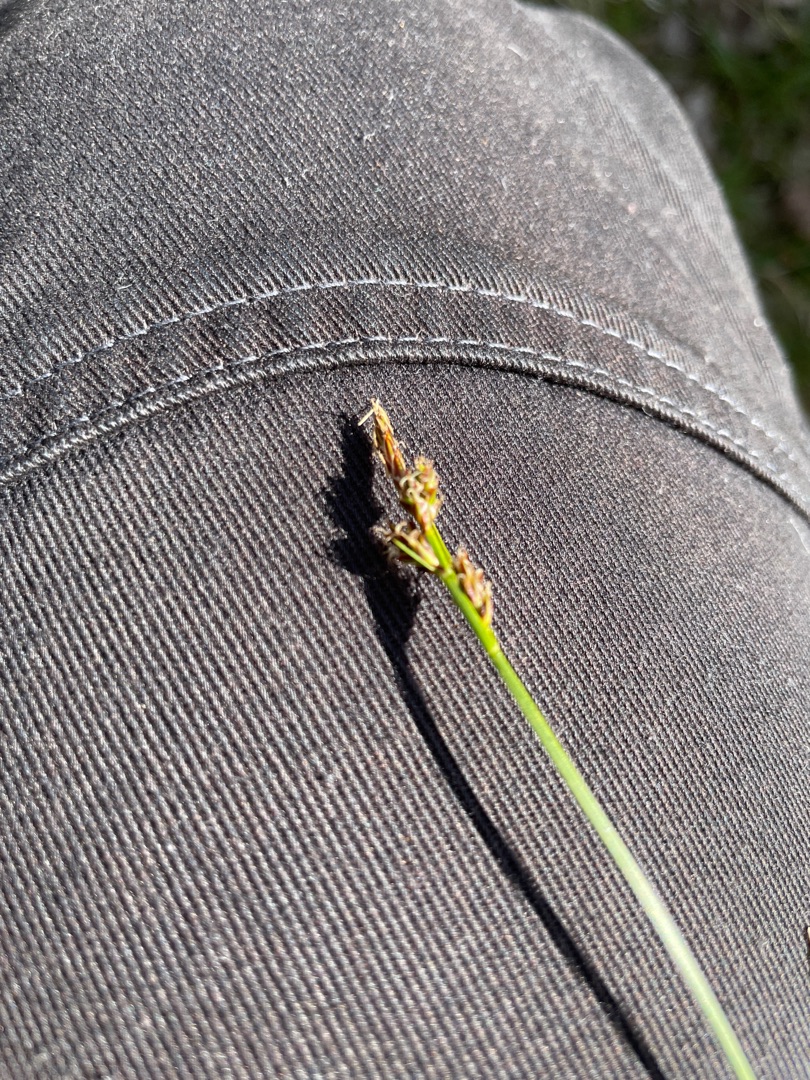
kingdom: Plantae
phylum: Tracheophyta
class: Liliopsida
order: Poales
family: Cyperaceae
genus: Carex
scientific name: Carex caryophyllea
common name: Vår-star
